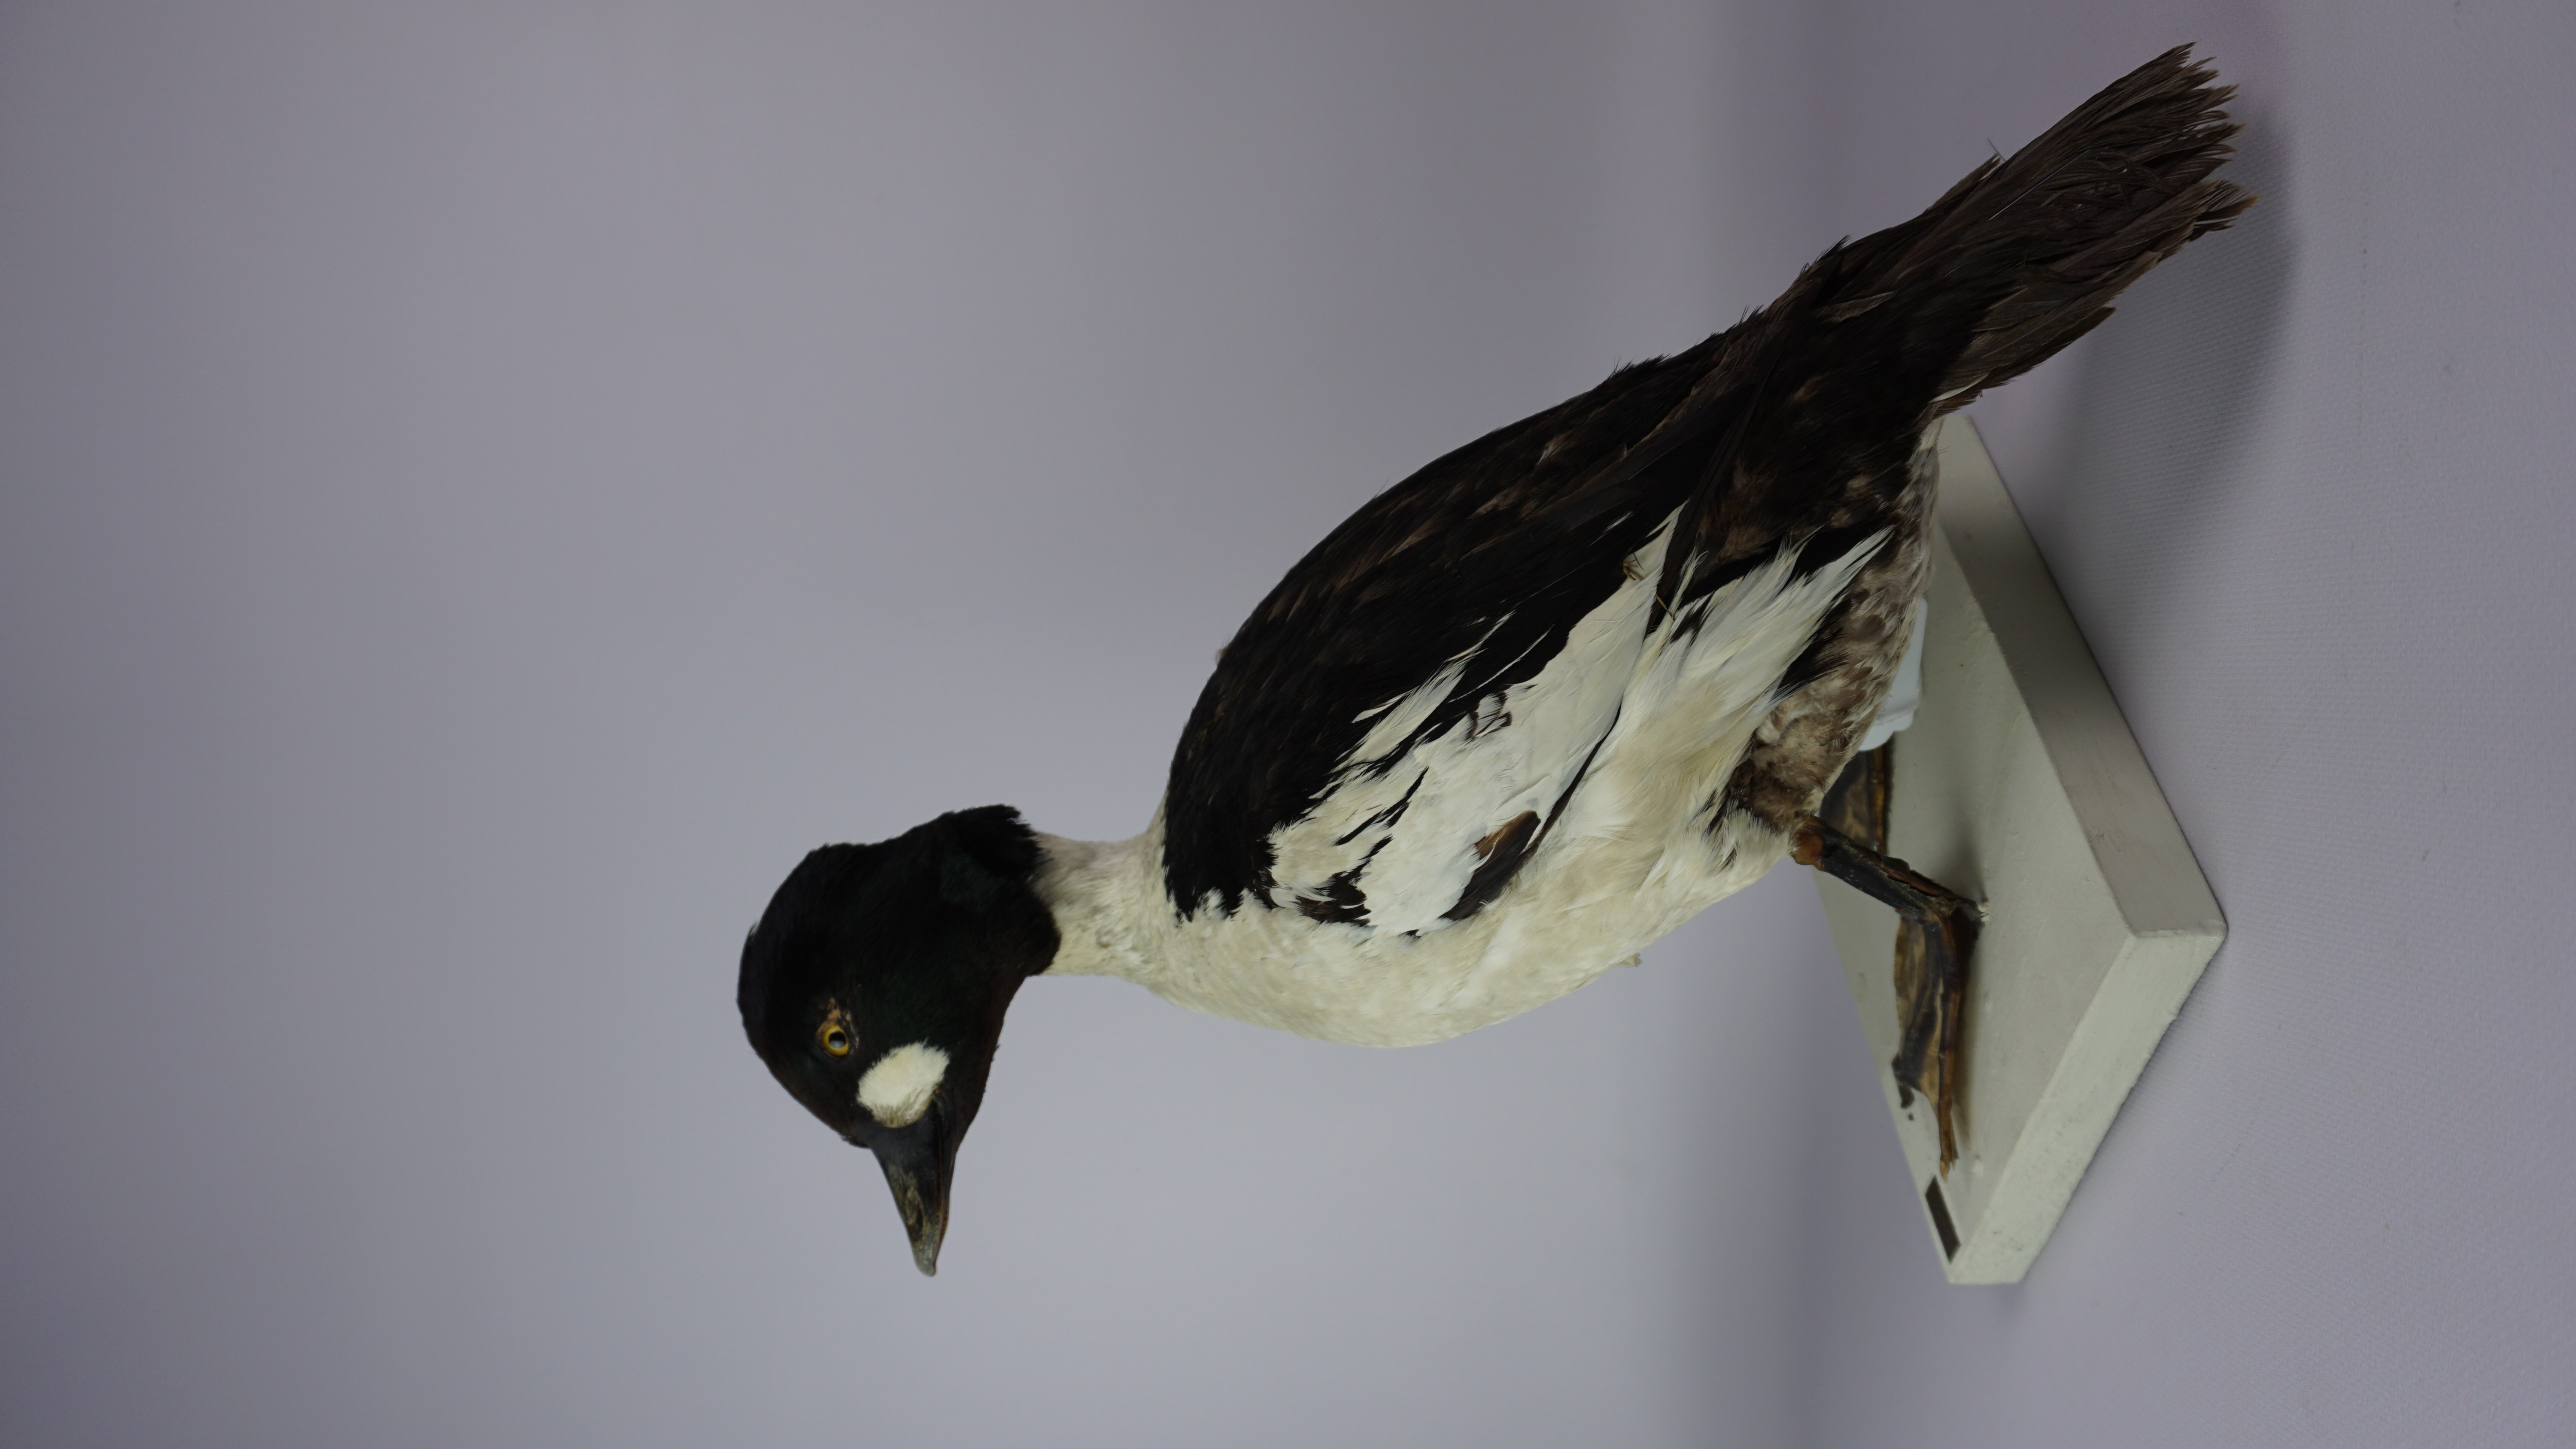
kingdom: Animalia
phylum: Chordata
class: Aves
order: Anseriformes
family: Anatidae
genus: Bucephala
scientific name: Bucephala clangula
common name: Common goldeneye
